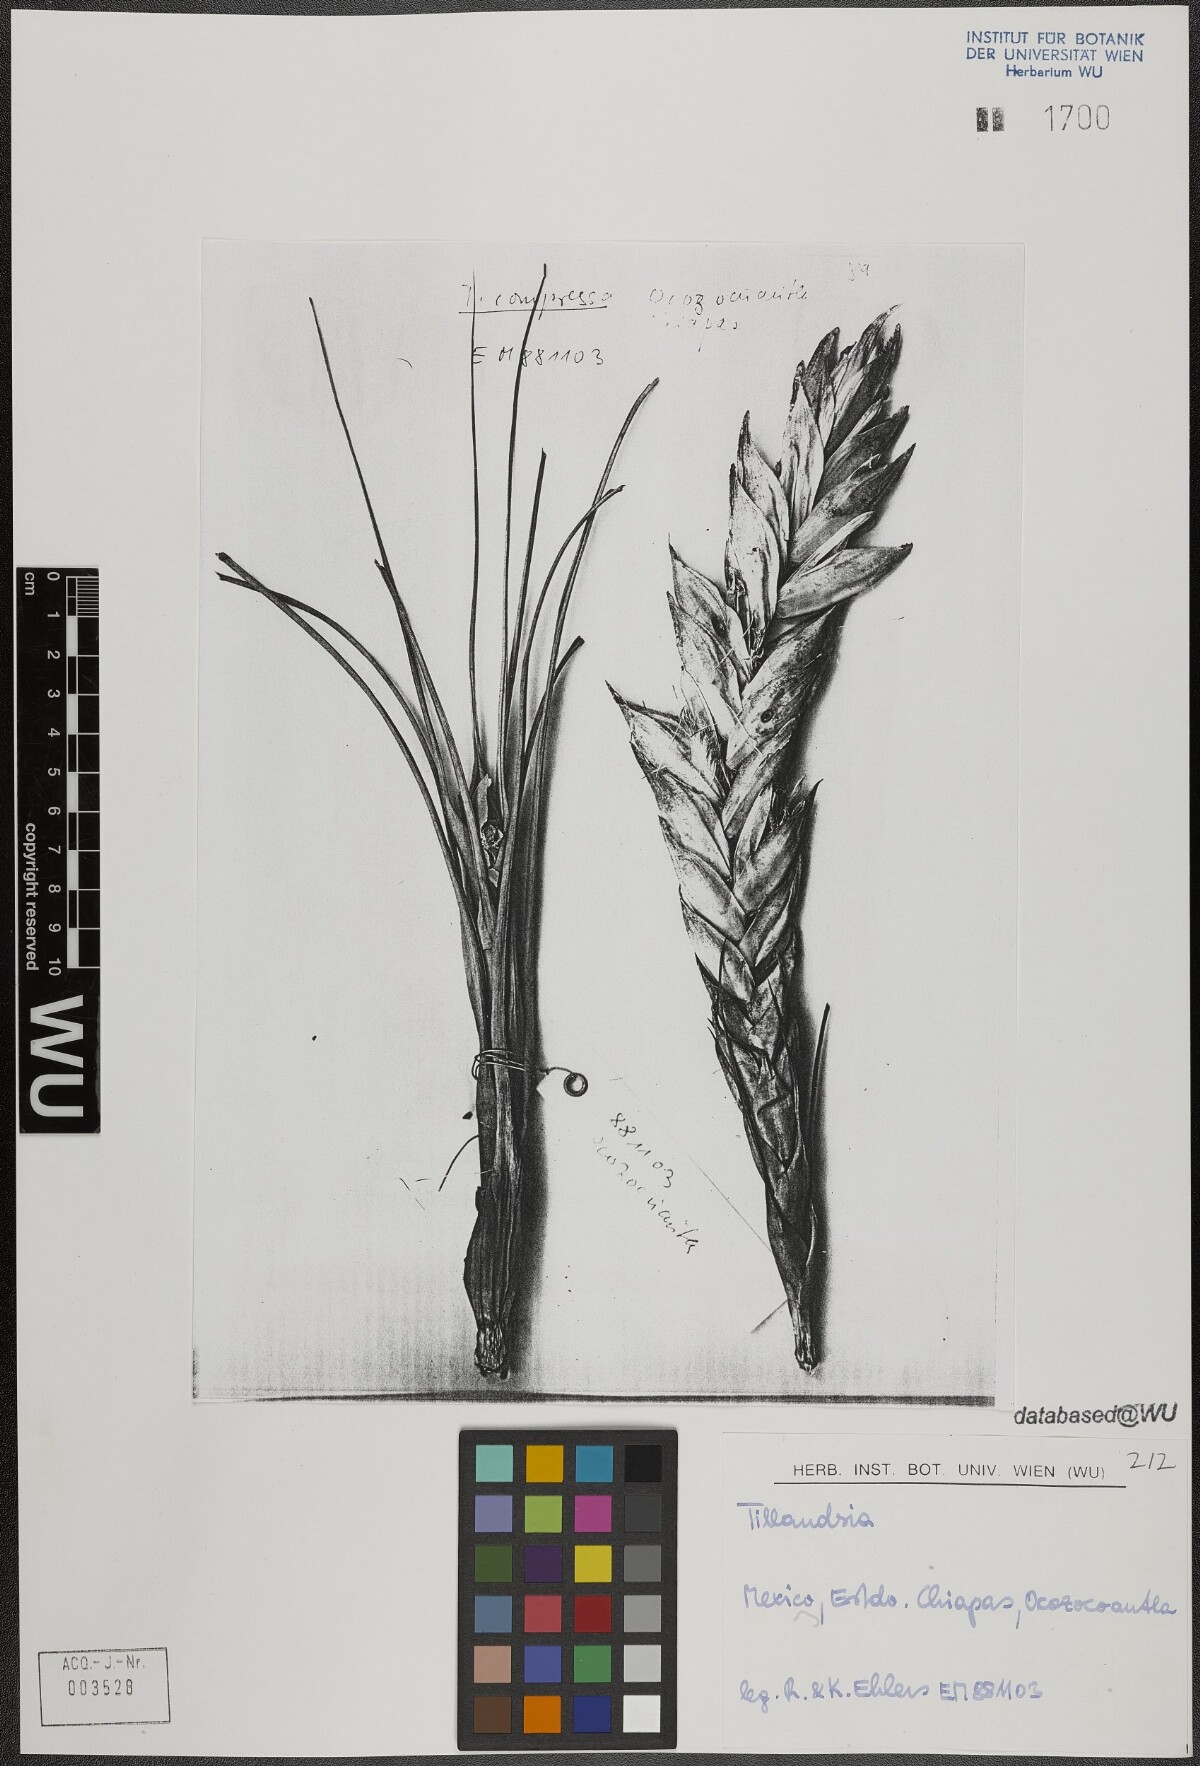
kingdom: Plantae
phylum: Tracheophyta
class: Liliopsida
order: Poales
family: Bromeliaceae
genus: Tillandsia
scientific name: Tillandsia fasciculata
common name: Giant airplant
